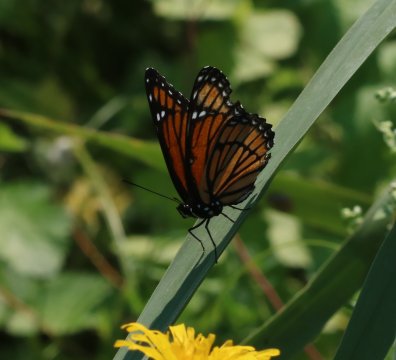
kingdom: Animalia
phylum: Arthropoda
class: Insecta
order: Lepidoptera
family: Nymphalidae
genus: Limenitis
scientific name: Limenitis archippus
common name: Viceroy
